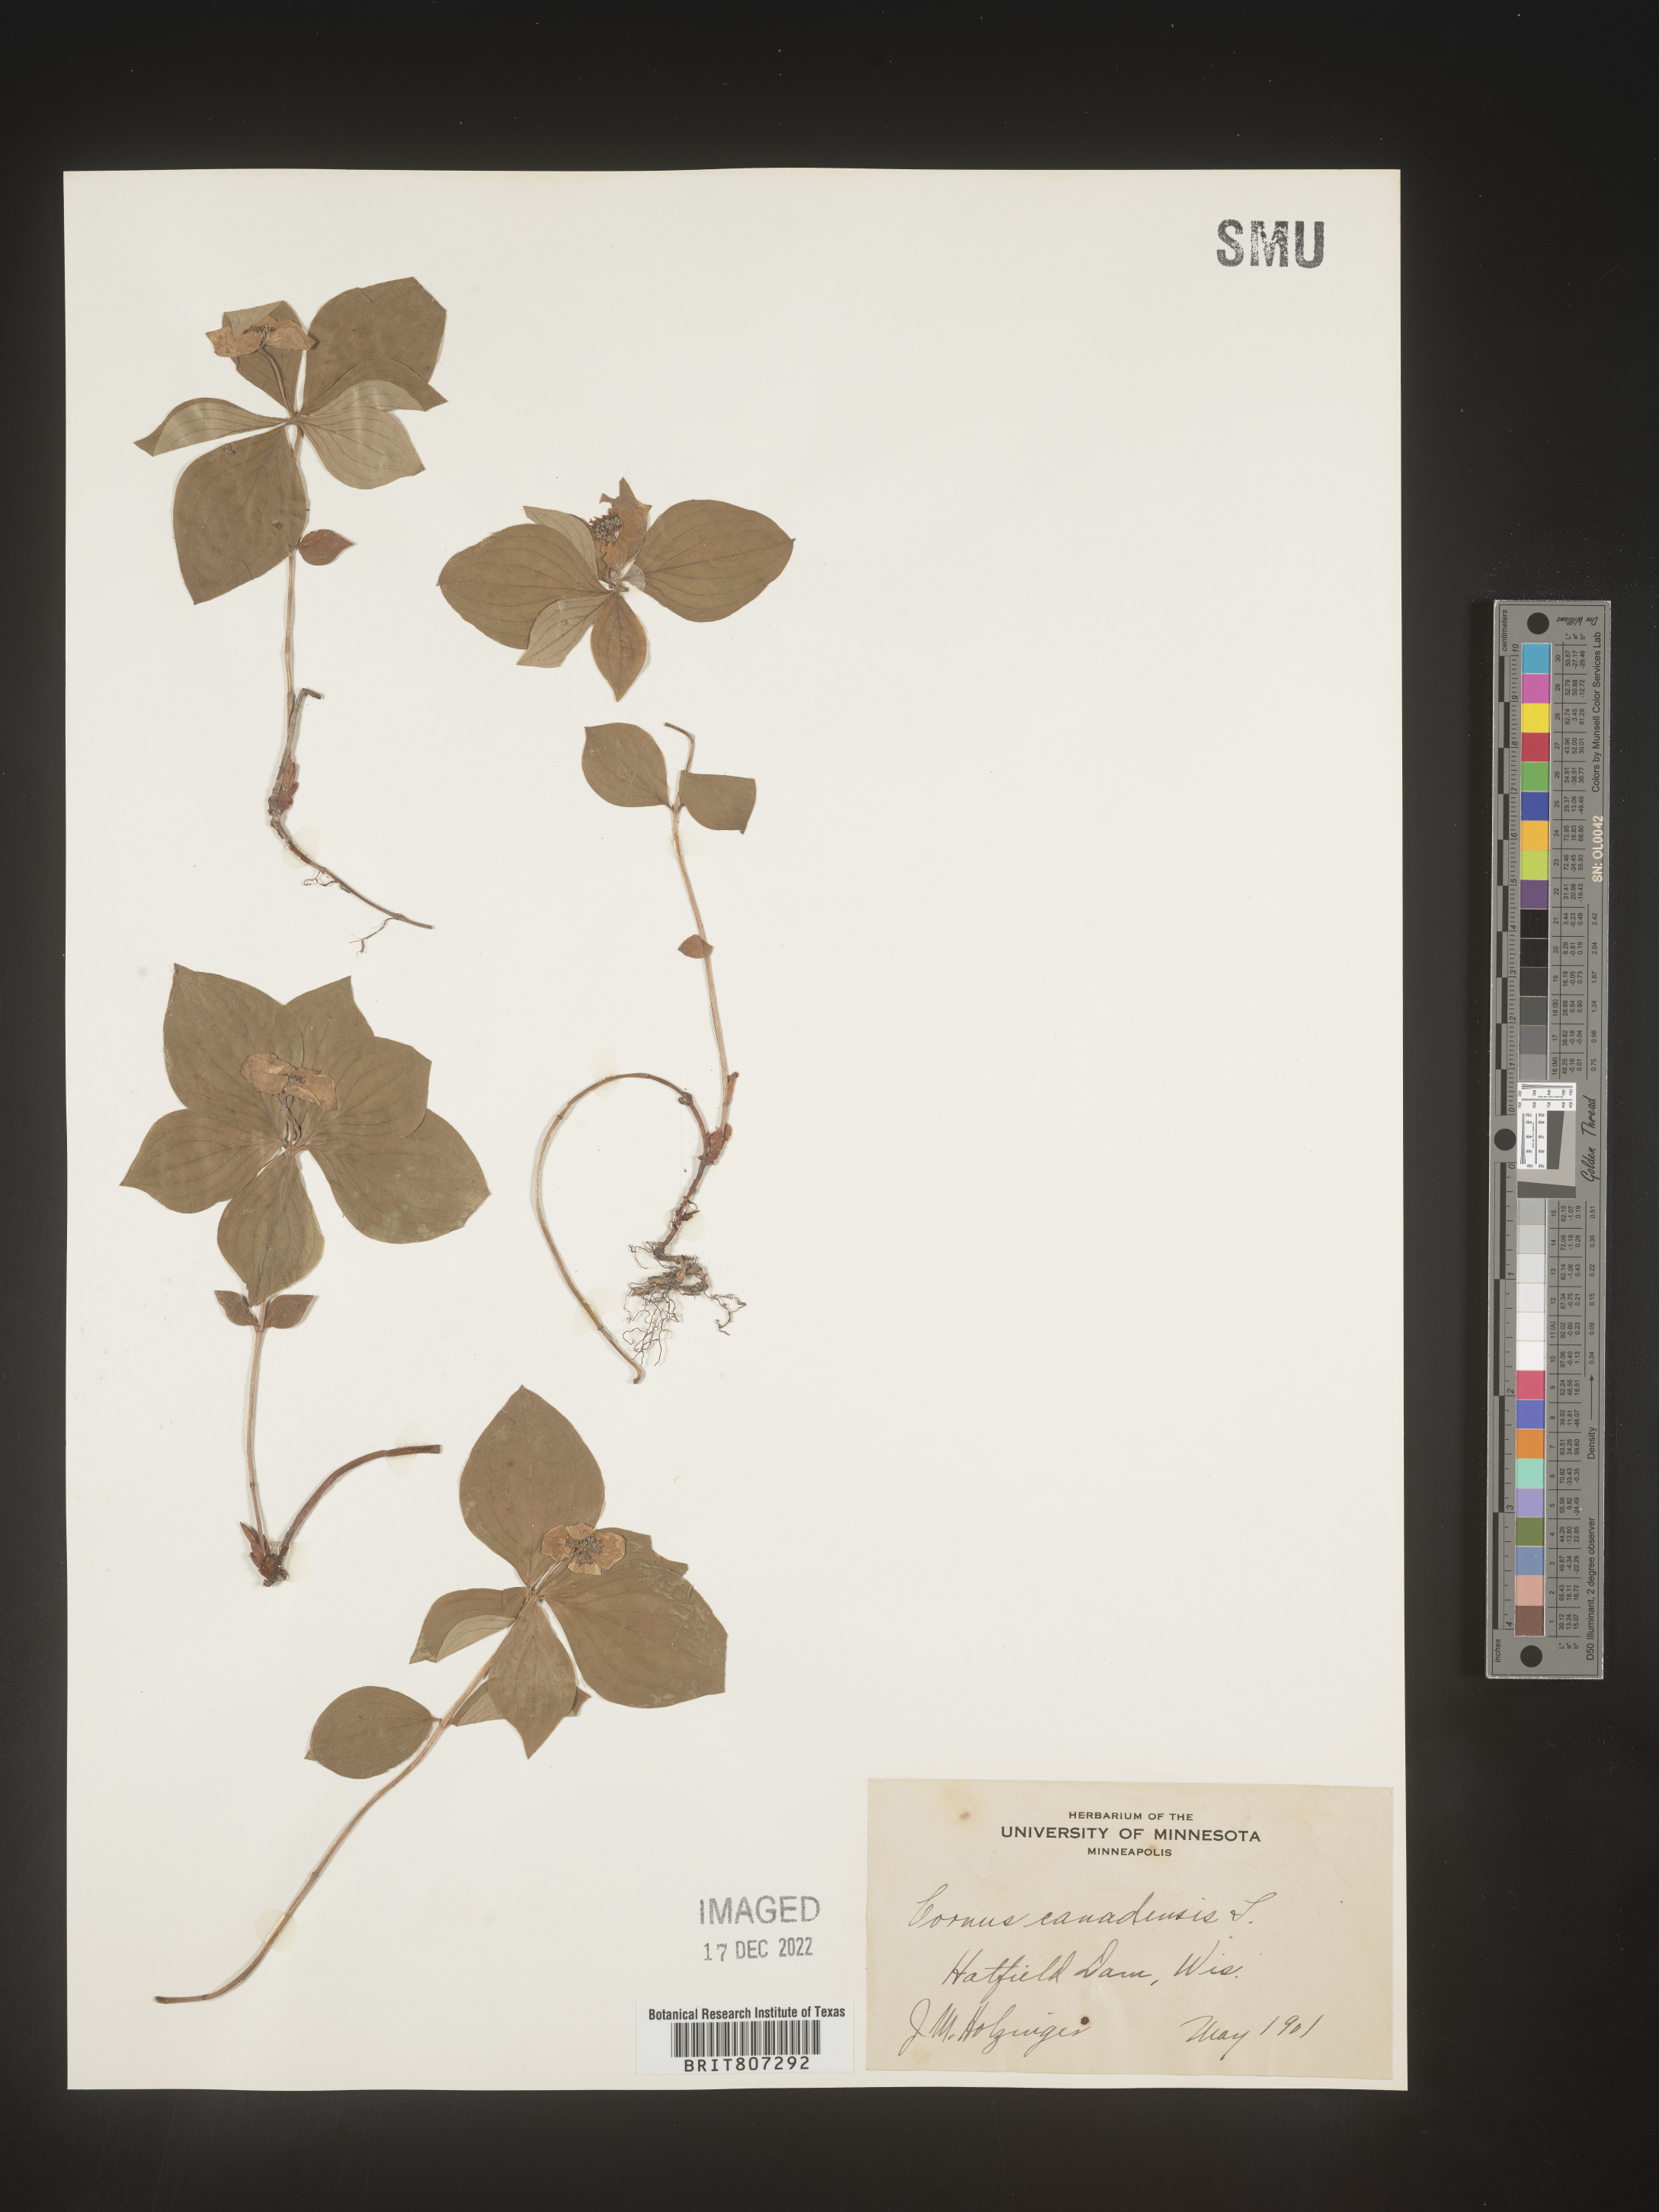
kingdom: Plantae
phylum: Tracheophyta
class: Magnoliopsida
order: Cornales
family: Cornaceae
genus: Cornus
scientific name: Cornus canadensis
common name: Creeping dogwood
